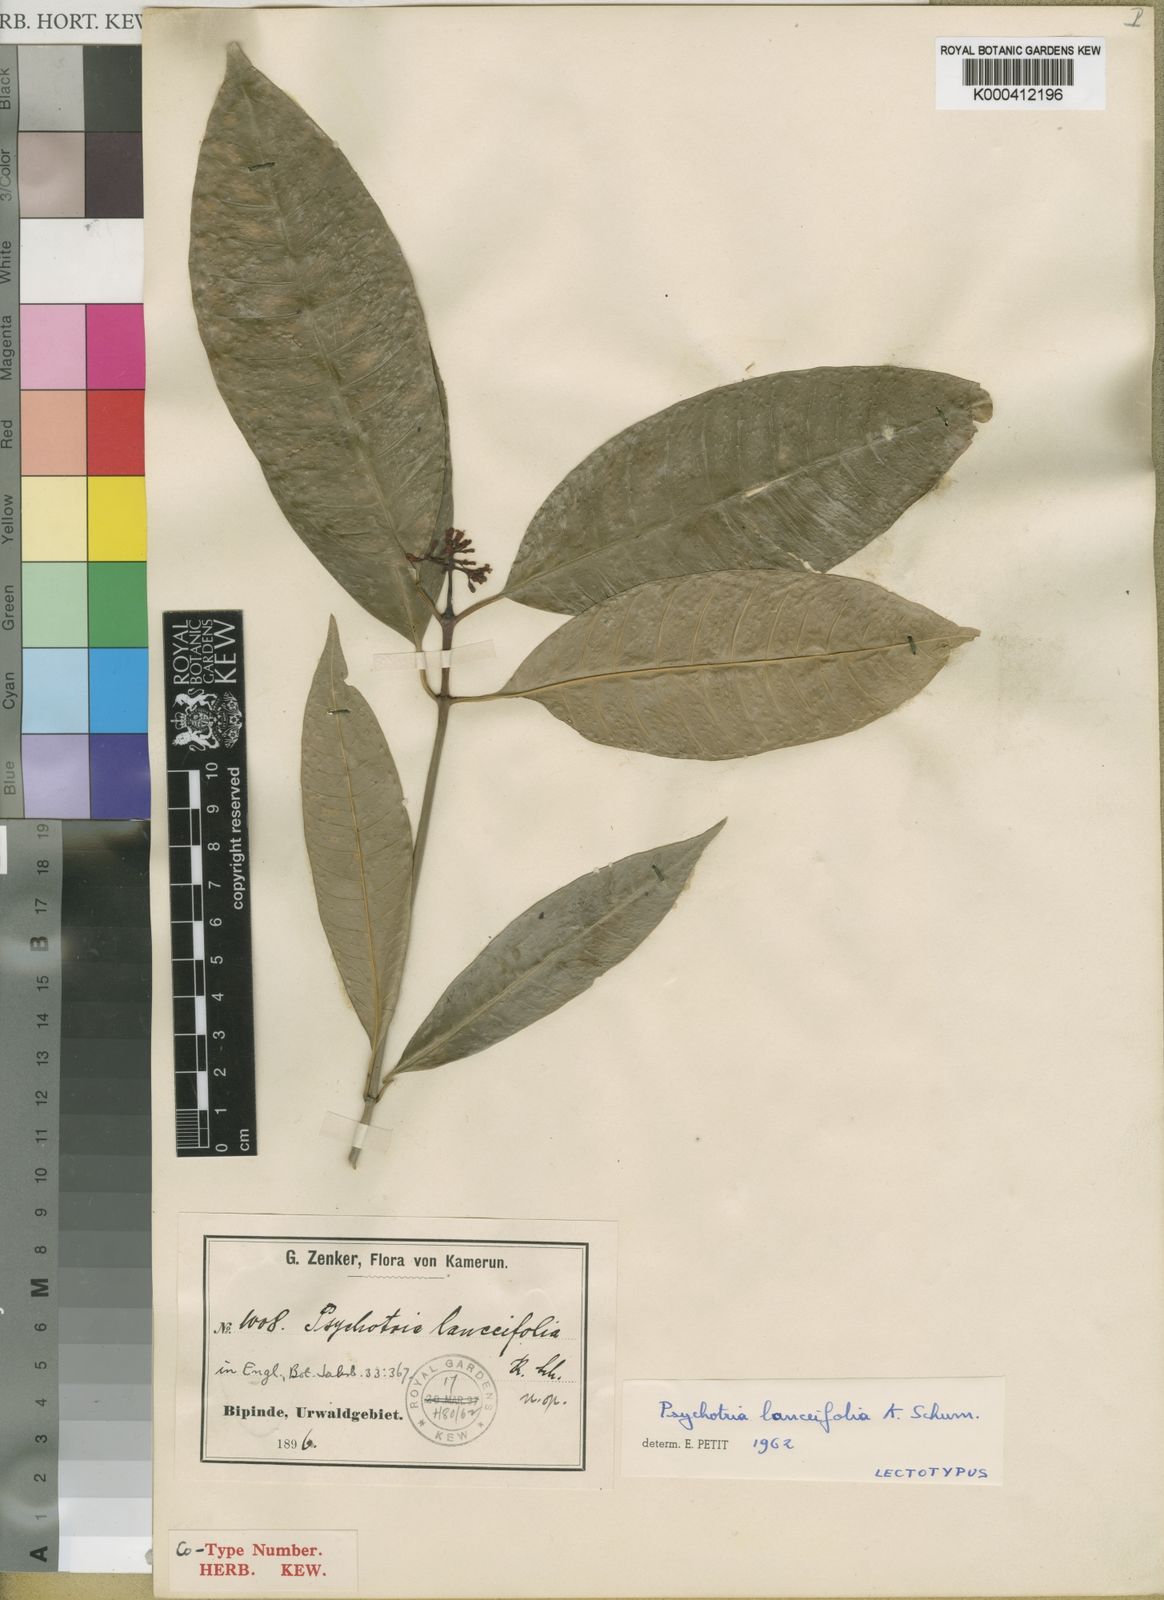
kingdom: Plantae
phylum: Tracheophyta
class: Magnoliopsida
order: Gentianales
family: Rubiaceae
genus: Psychotria
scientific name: Psychotria lanceifolia
